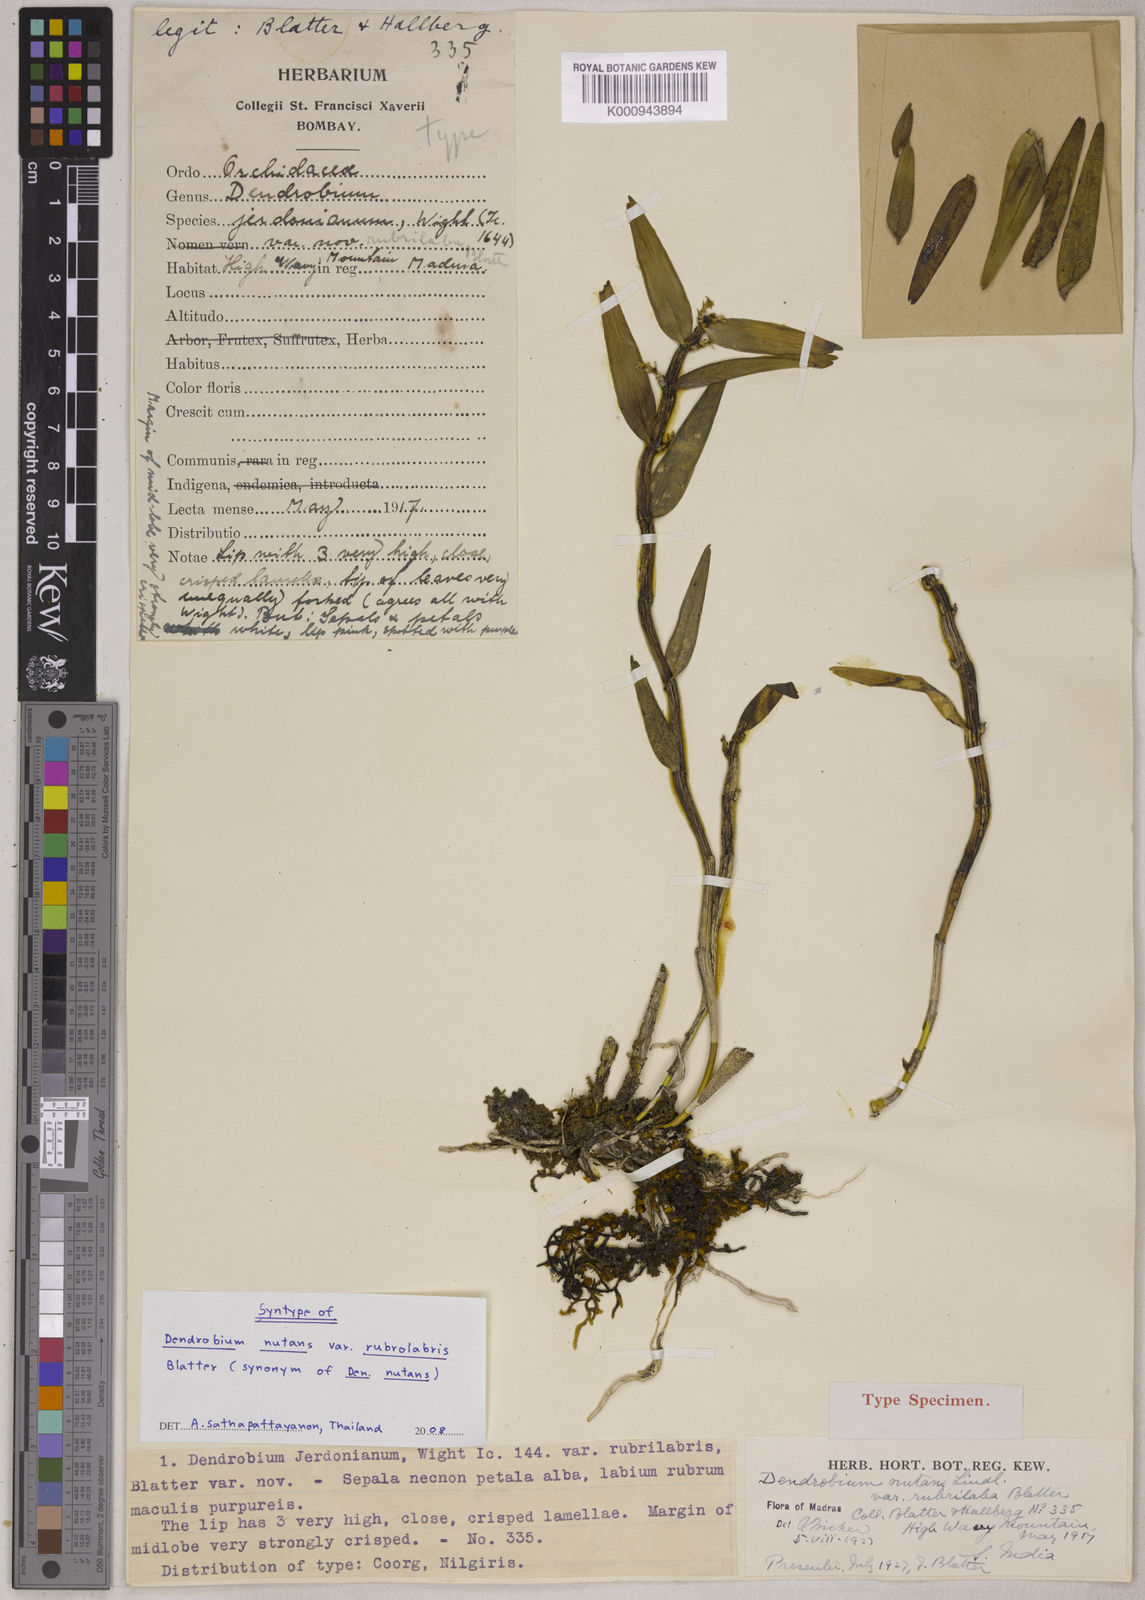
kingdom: Plantae
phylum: Tracheophyta
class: Liliopsida
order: Asparagales
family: Orchidaceae
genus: Dendrobium
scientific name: Dendrobium
